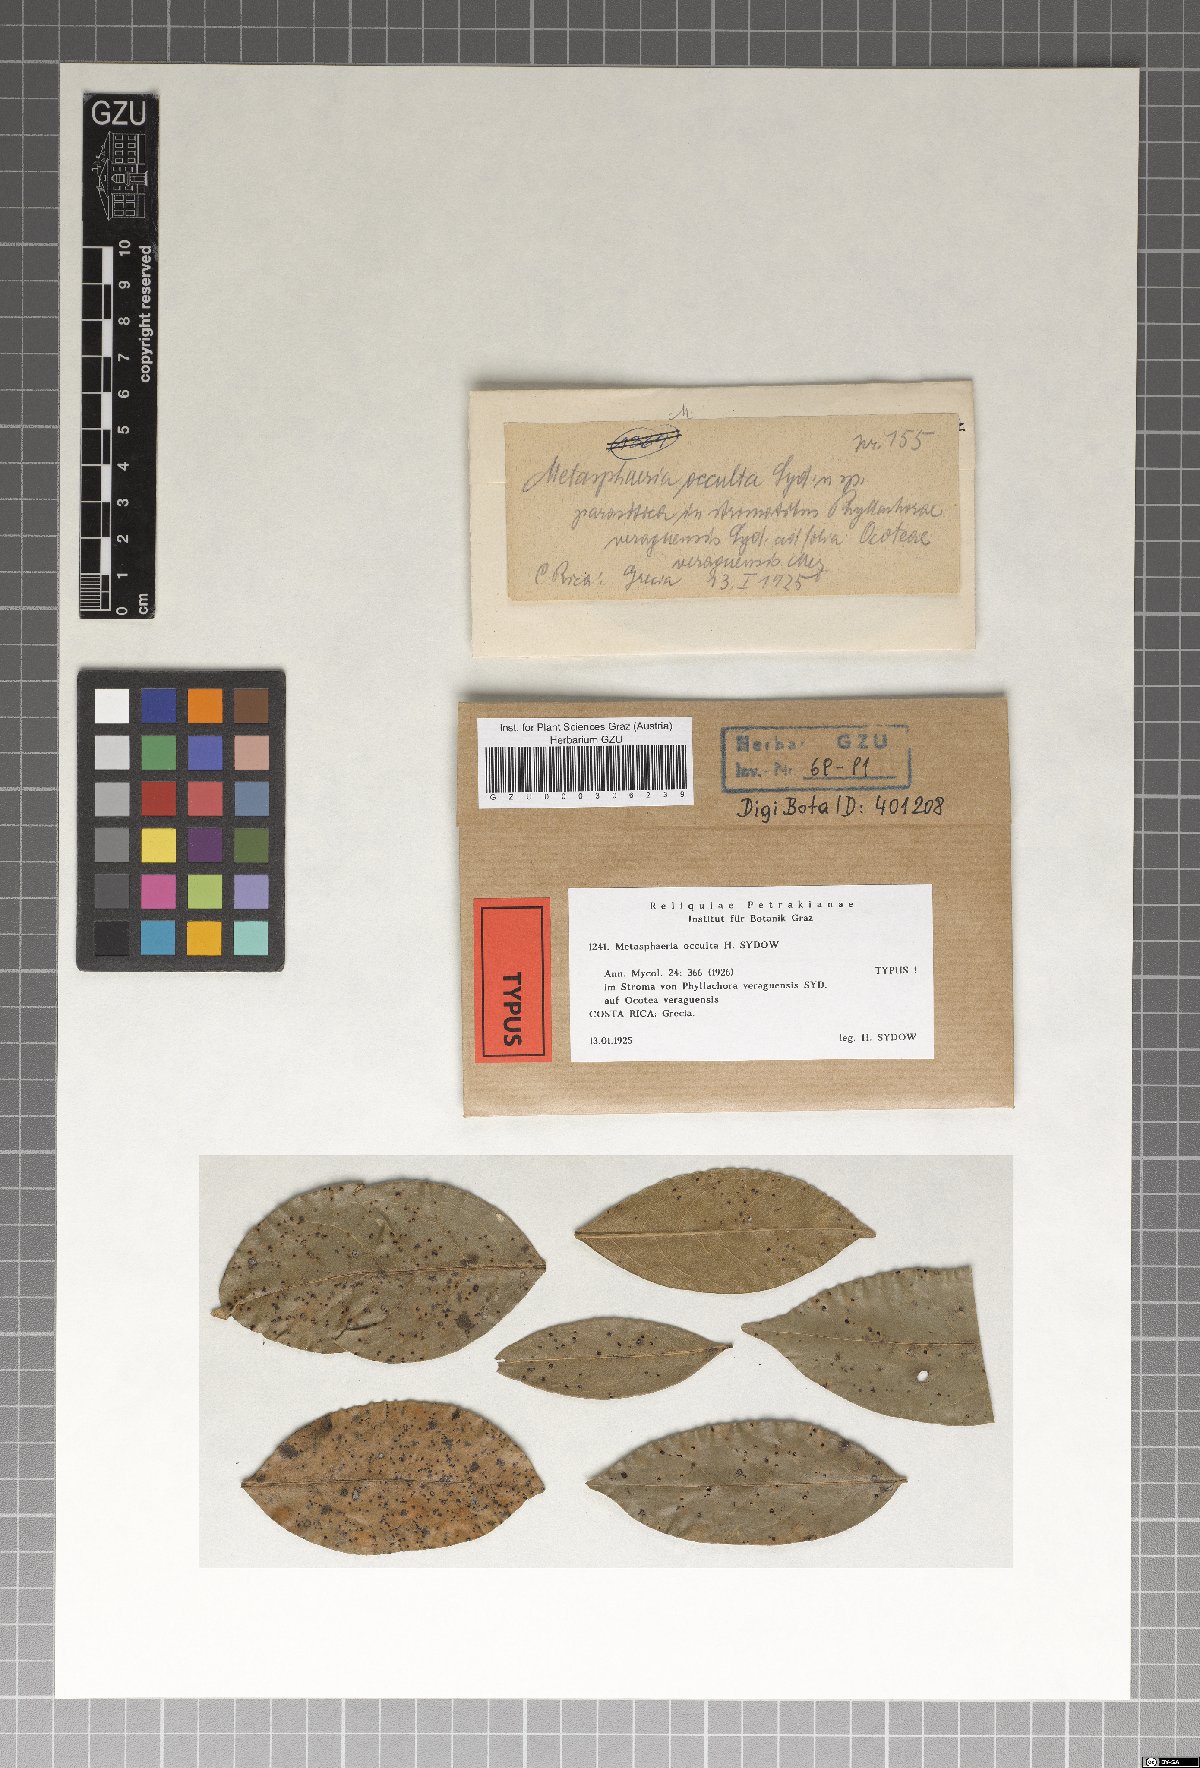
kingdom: Fungi
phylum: Ascomycota
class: Dothideomycetes
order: Dothideales
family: Saccotheciaceae
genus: Metasphaeria
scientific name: Metasphaeria occulta
